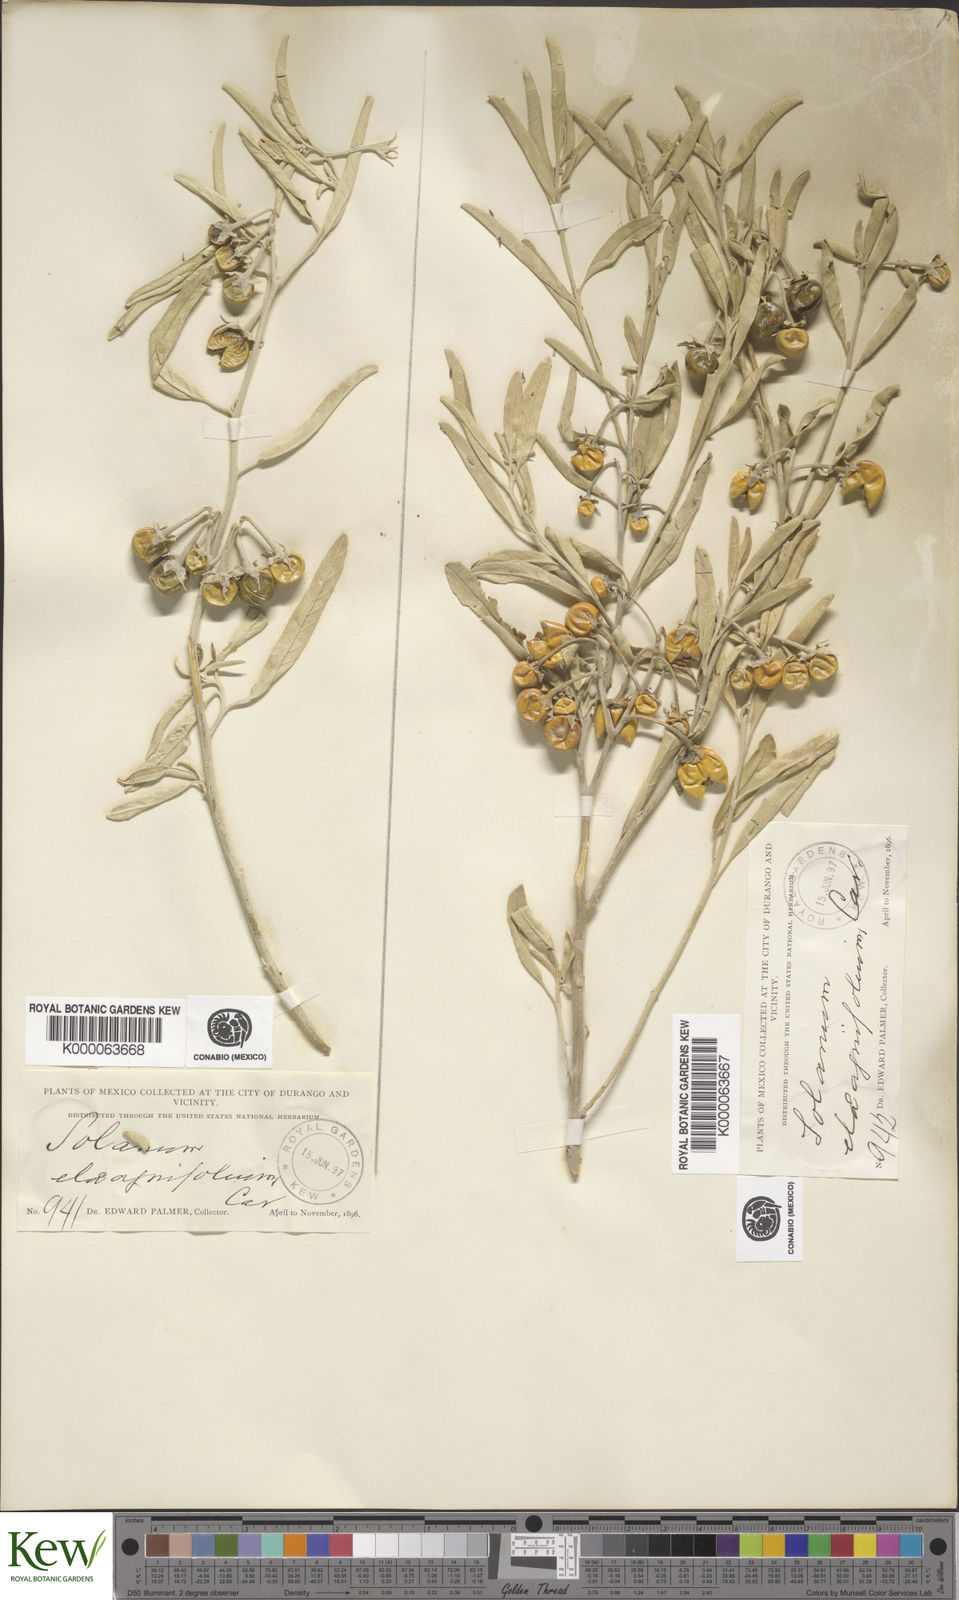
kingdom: Plantae
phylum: Tracheophyta
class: Magnoliopsida
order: Solanales
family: Solanaceae
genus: Solanum
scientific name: Solanum elaeagnifolium
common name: Silverleaf nightshade
